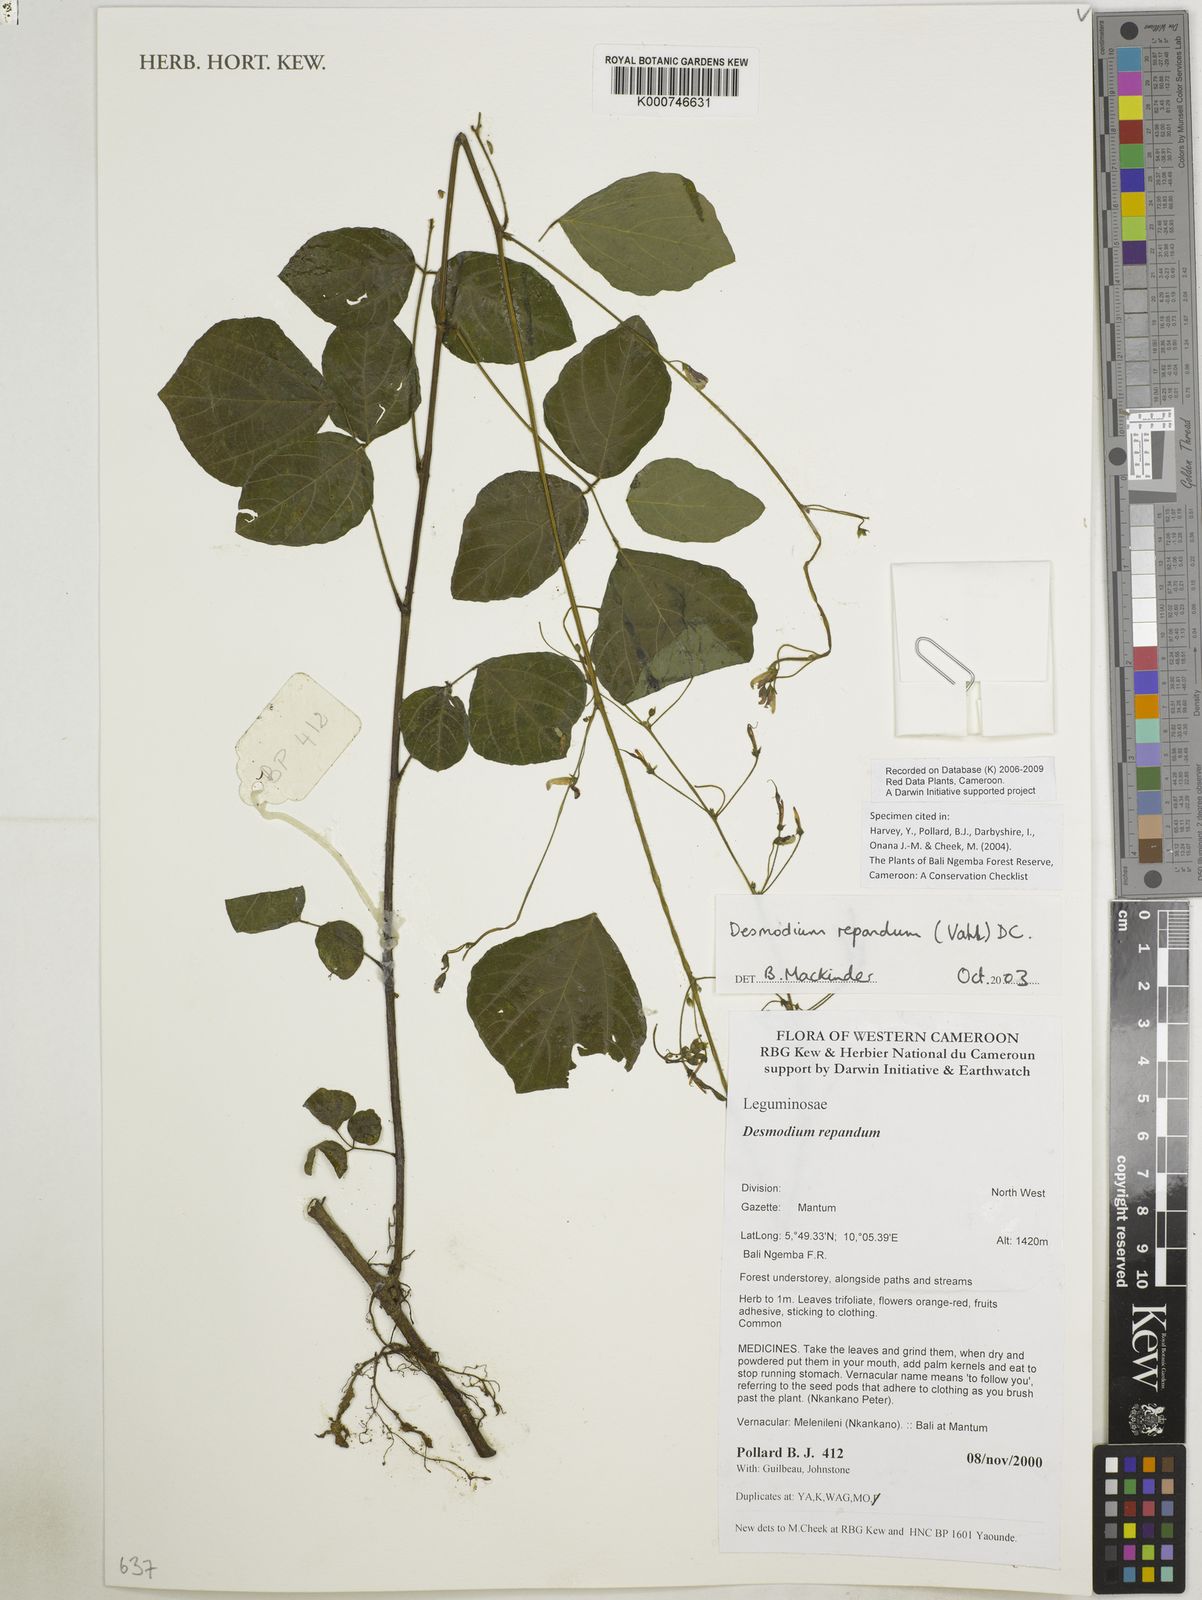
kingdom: Plantae
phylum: Tracheophyta
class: Magnoliopsida
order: Fabales
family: Fabaceae
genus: Desmodium
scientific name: Desmodium
